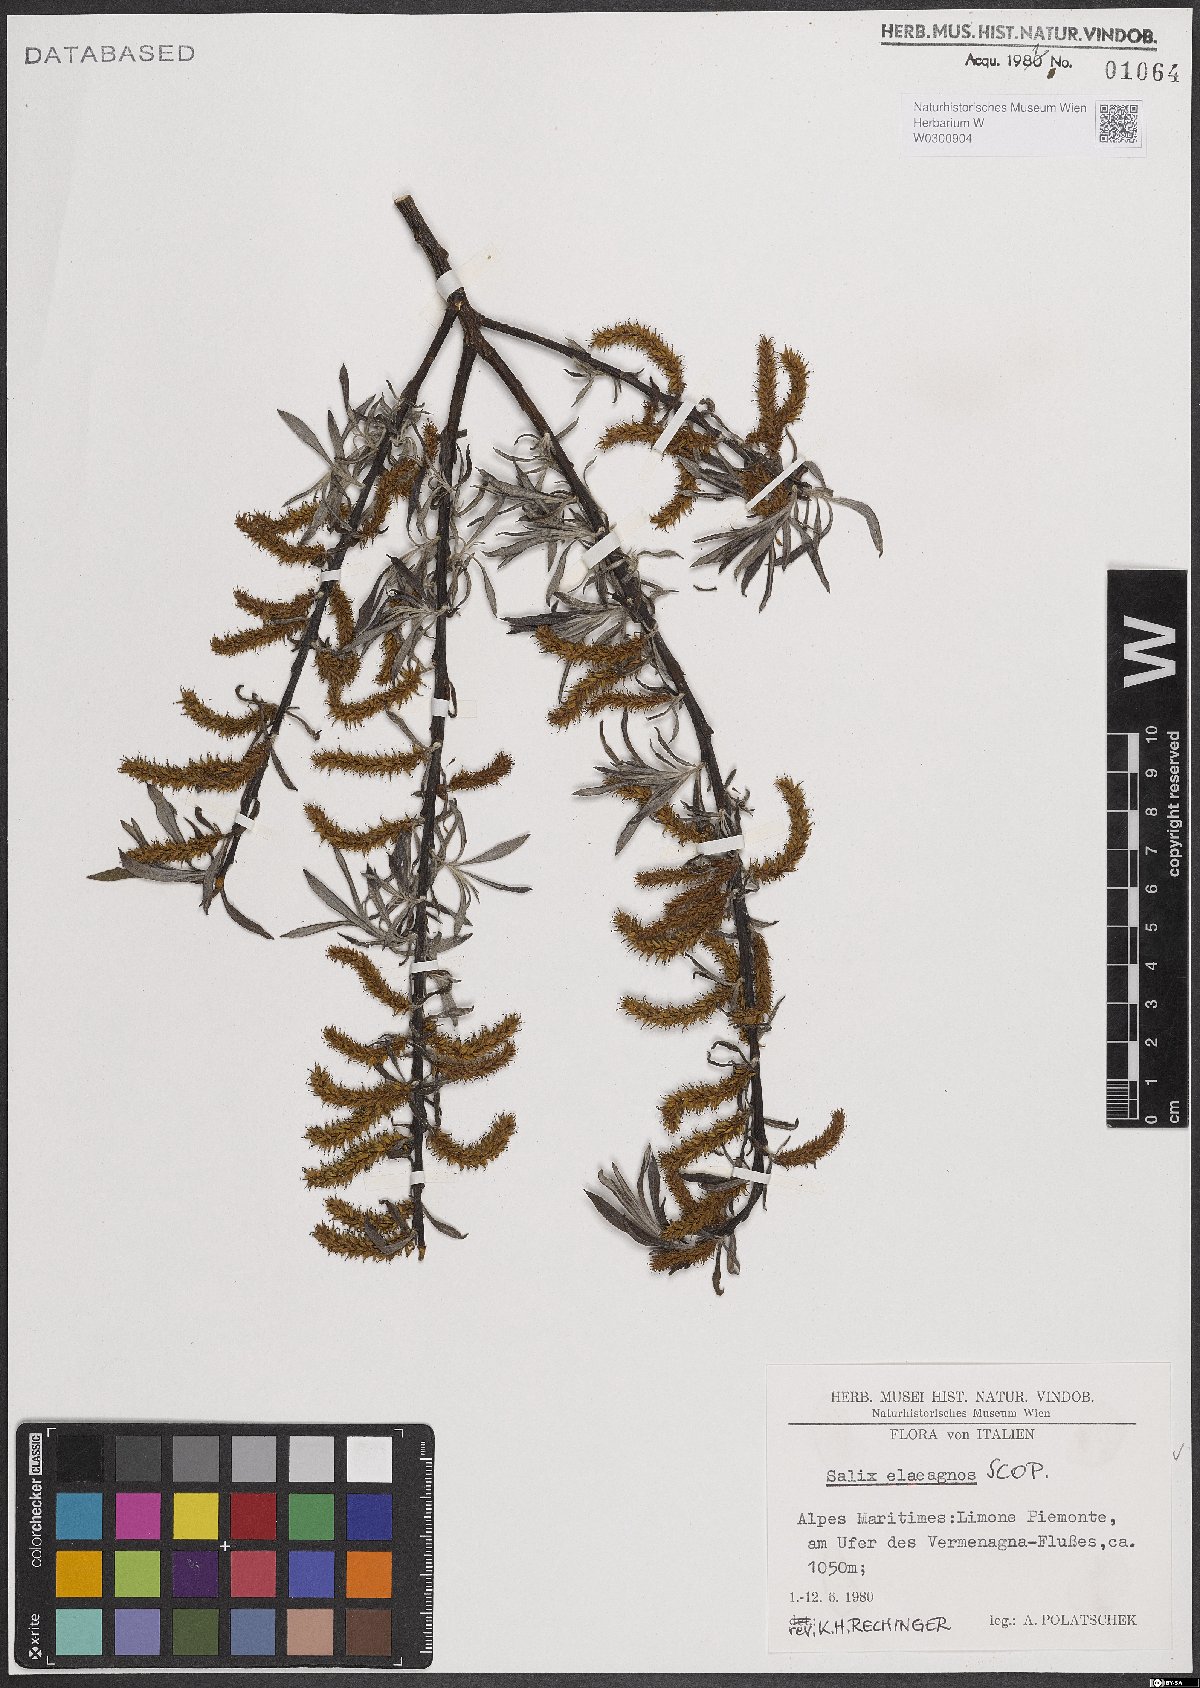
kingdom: Plantae
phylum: Tracheophyta
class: Magnoliopsida
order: Malpighiales
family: Salicaceae
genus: Salix
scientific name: Salix eleagnos
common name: Elaeagnus willow
